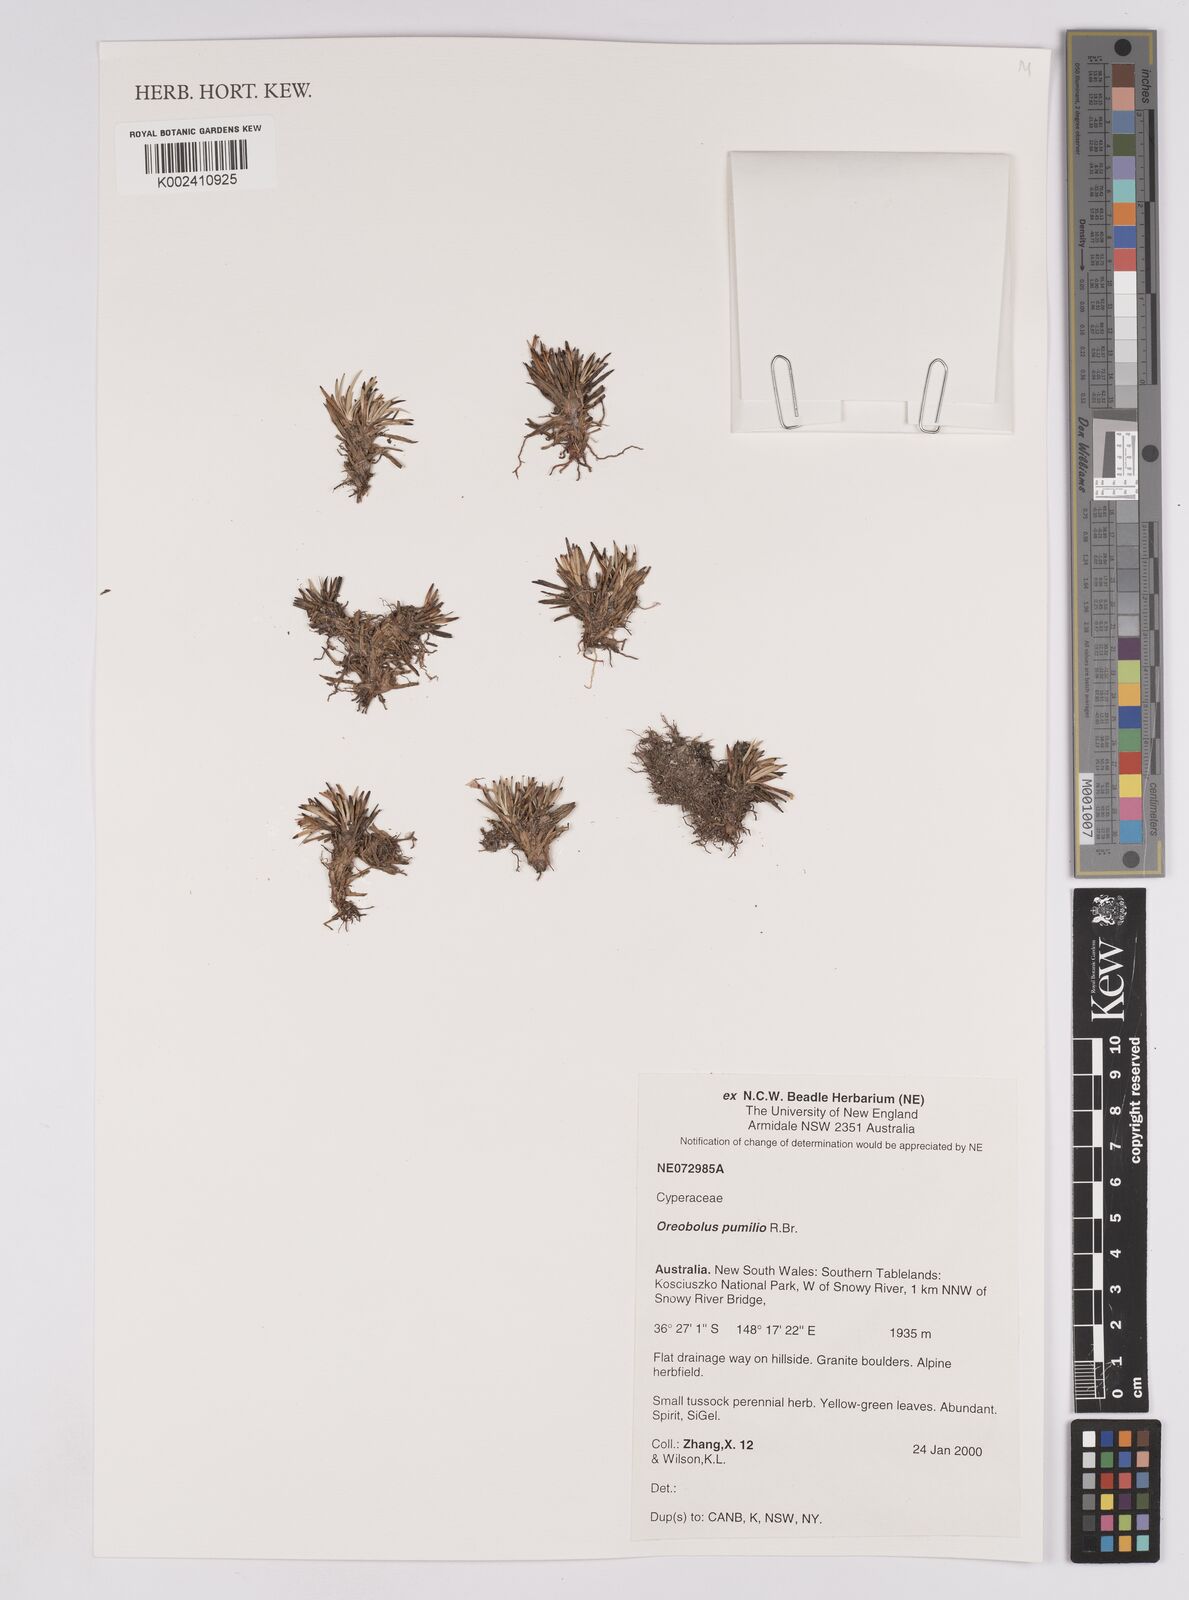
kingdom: Plantae
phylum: Tracheophyta
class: Liliopsida
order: Poales
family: Cyperaceae
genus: Oreobolus
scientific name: Oreobolus pumilio
